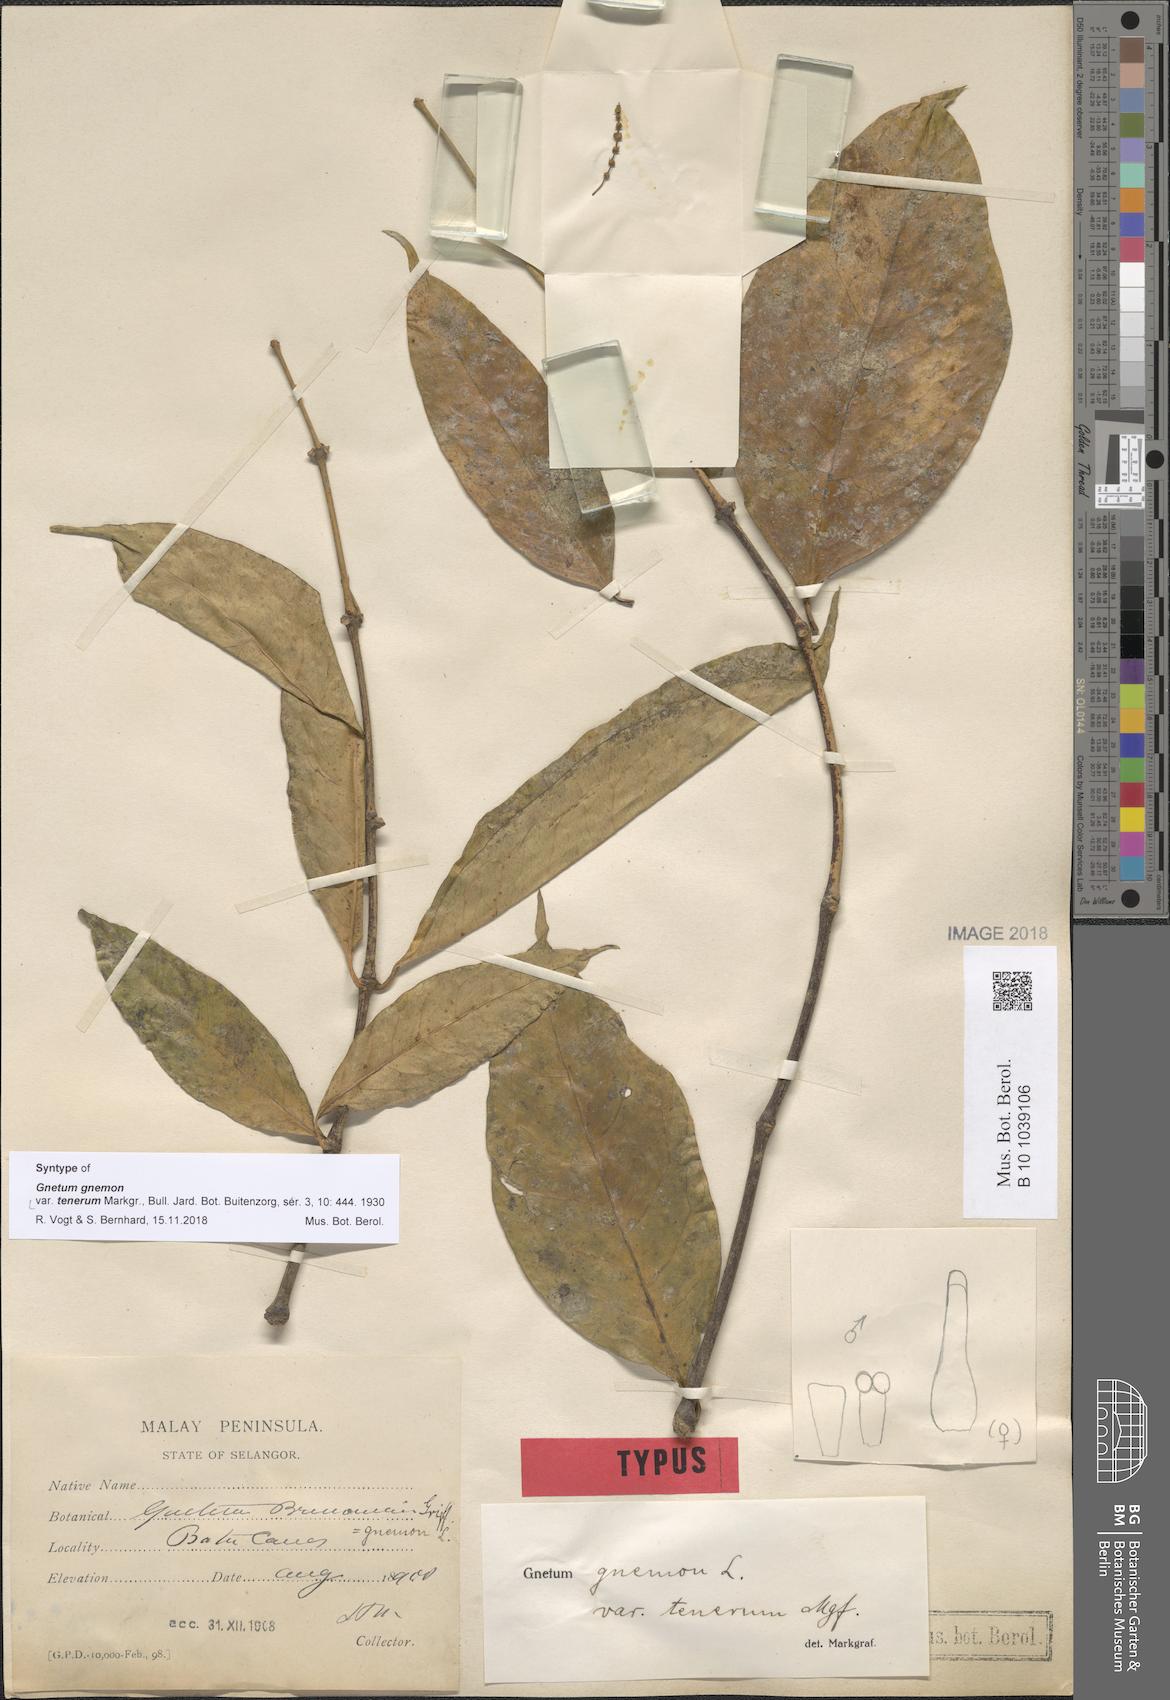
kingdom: Plantae
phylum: Tracheophyta
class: Gnetopsida
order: Gnetales
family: Gnetaceae
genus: Gnetum
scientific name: Gnetum gnemon
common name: Spanish joint-fir
